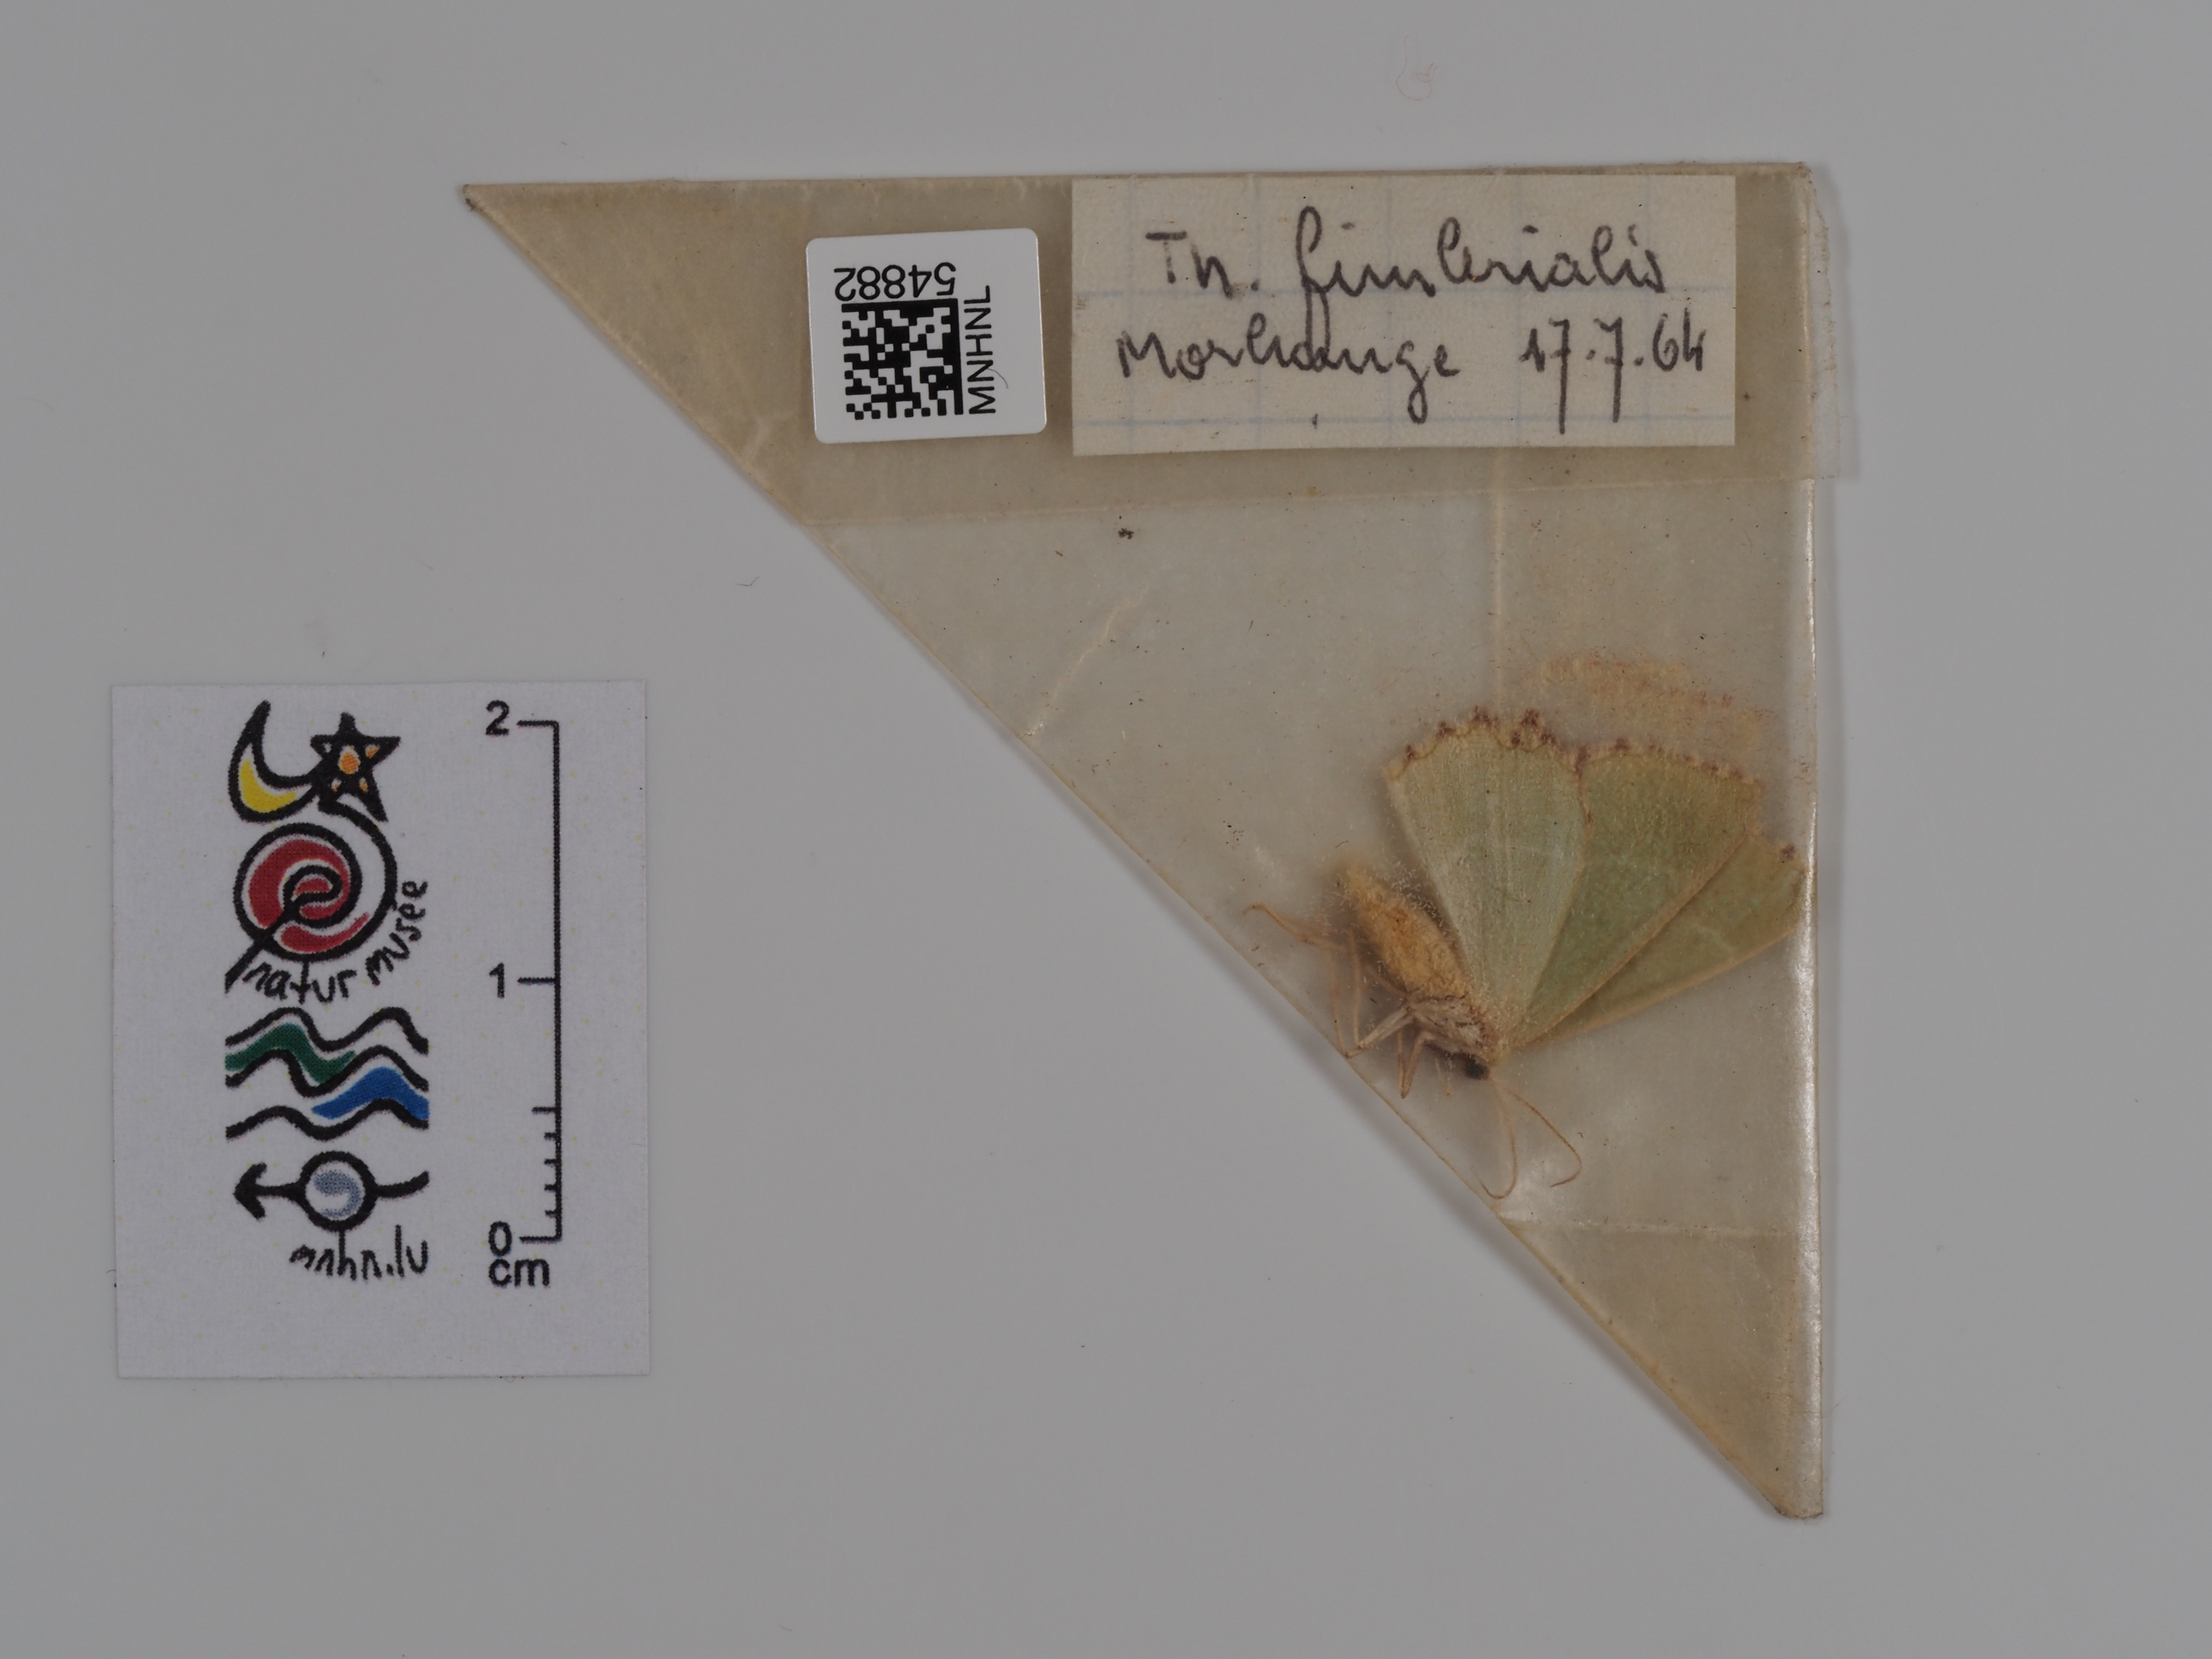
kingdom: Animalia
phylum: Arthropoda
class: Insecta
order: Lepidoptera
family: Geometridae
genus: Thalera
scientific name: Thalera fimbrialis
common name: Sussex emerald
